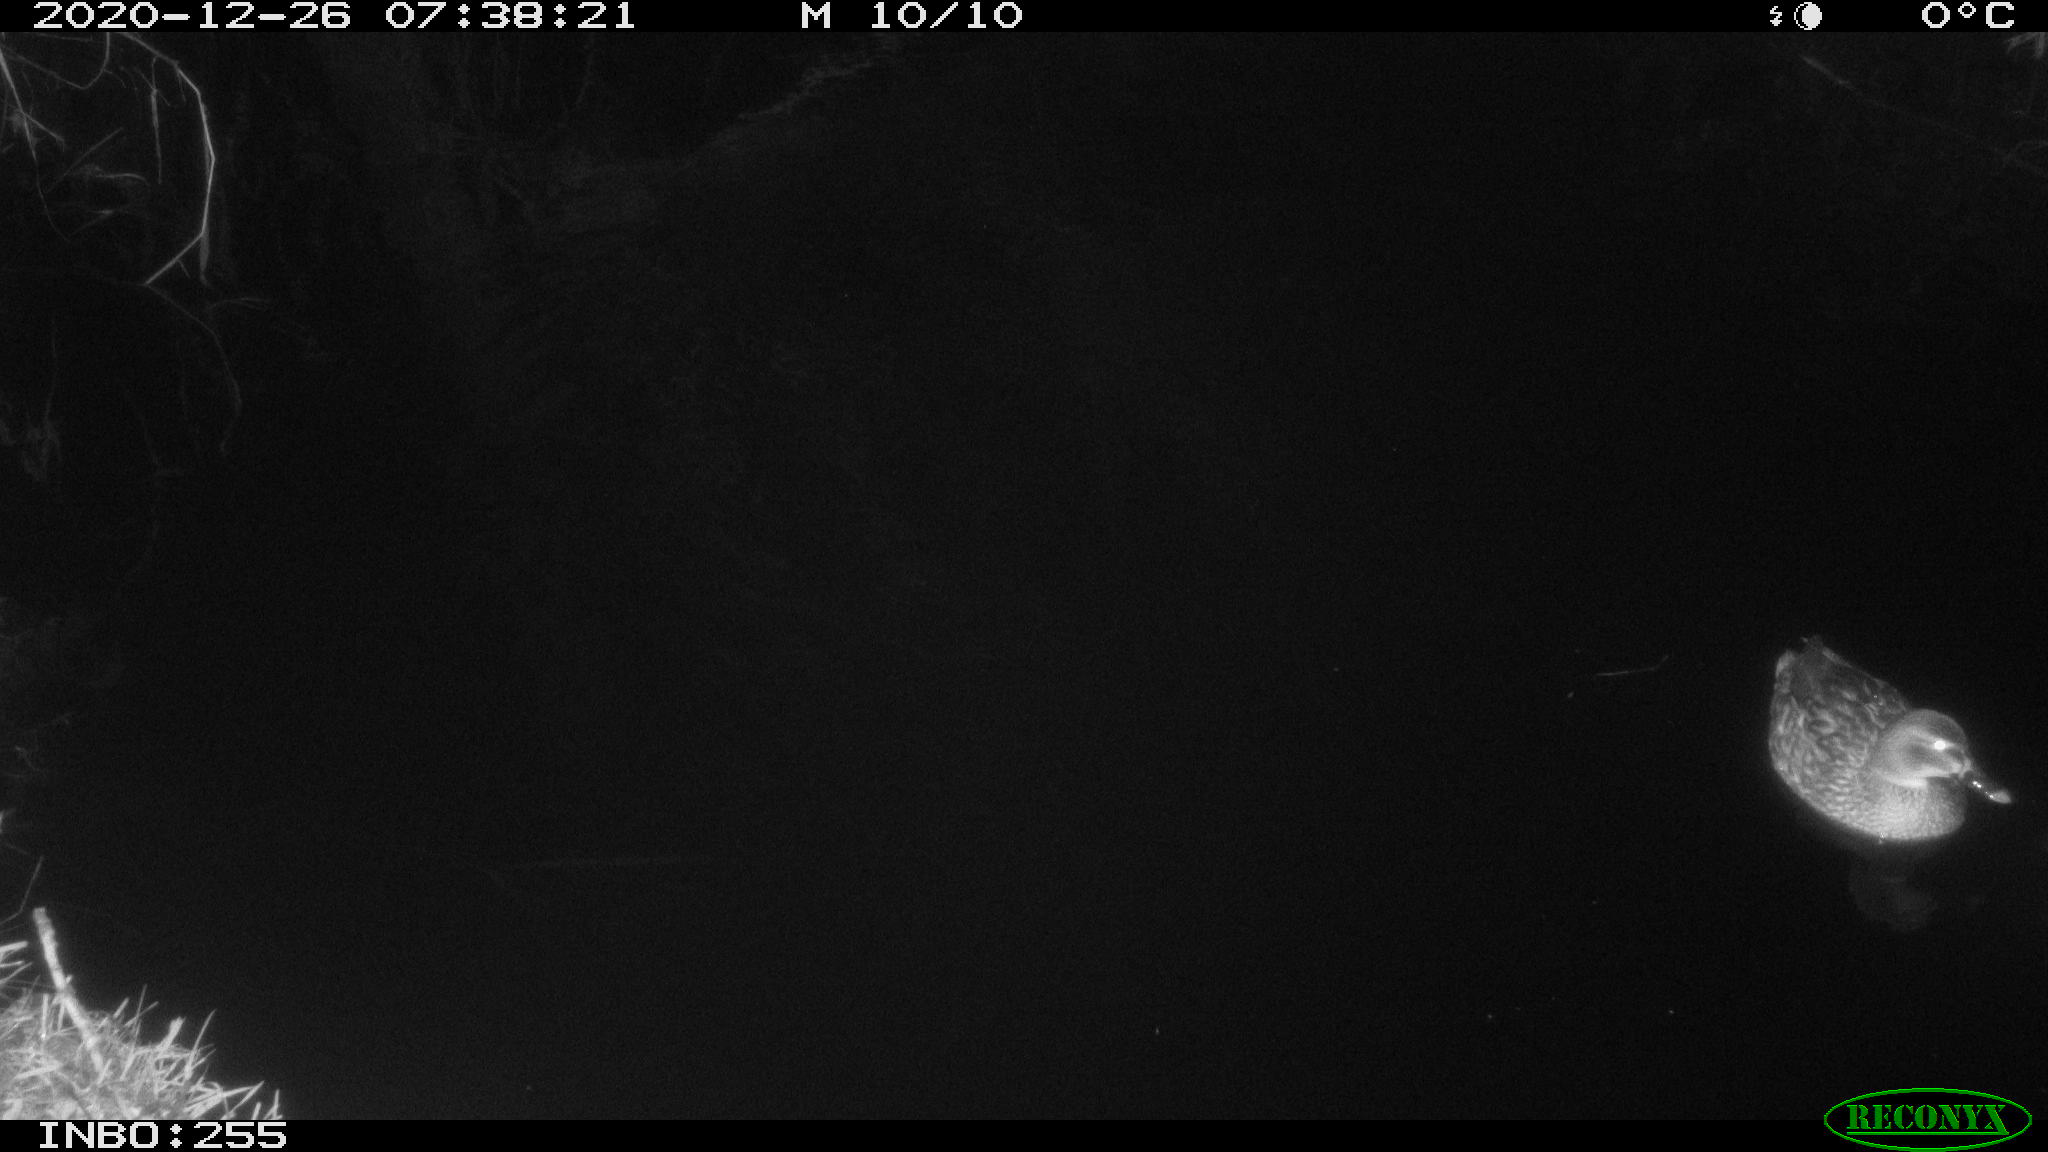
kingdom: Animalia
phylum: Chordata
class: Aves
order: Anseriformes
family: Anatidae
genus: Anas
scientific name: Anas platyrhynchos
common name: Mallard
